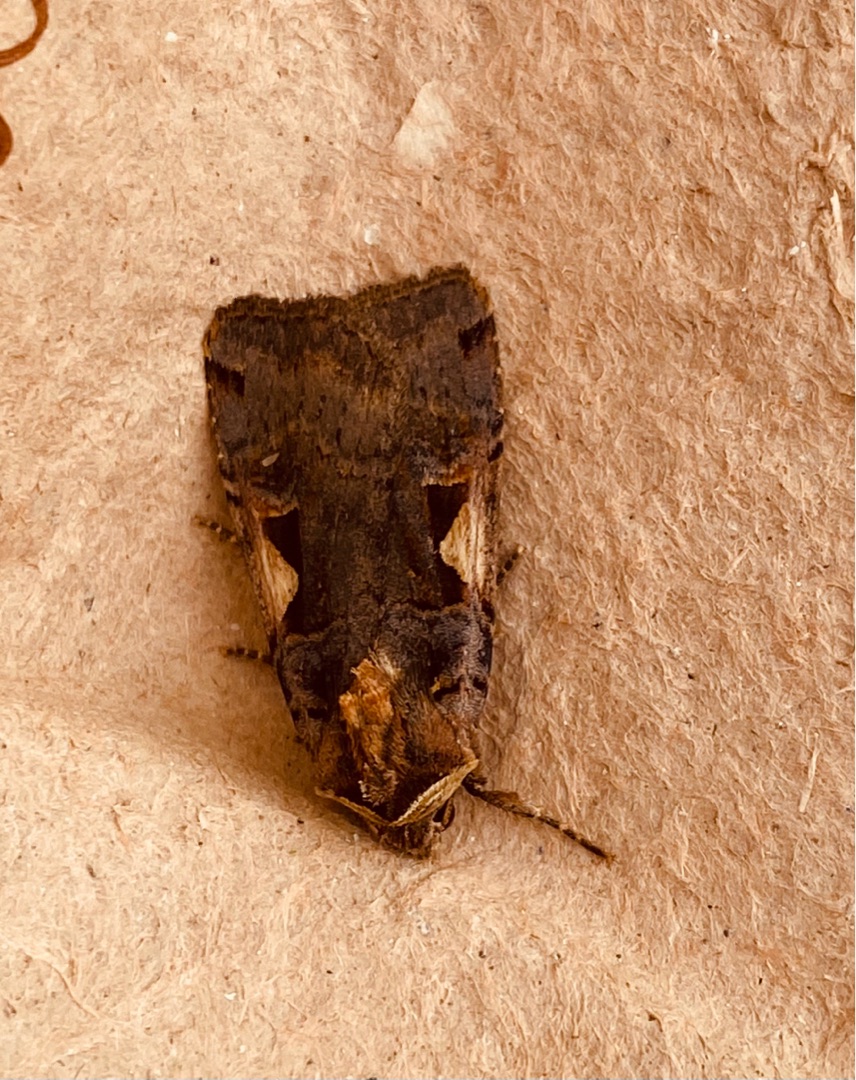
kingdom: Animalia
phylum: Arthropoda
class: Insecta
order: Lepidoptera
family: Noctuidae
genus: Xestia
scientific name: Xestia c-nigrum
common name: Det sorte c
